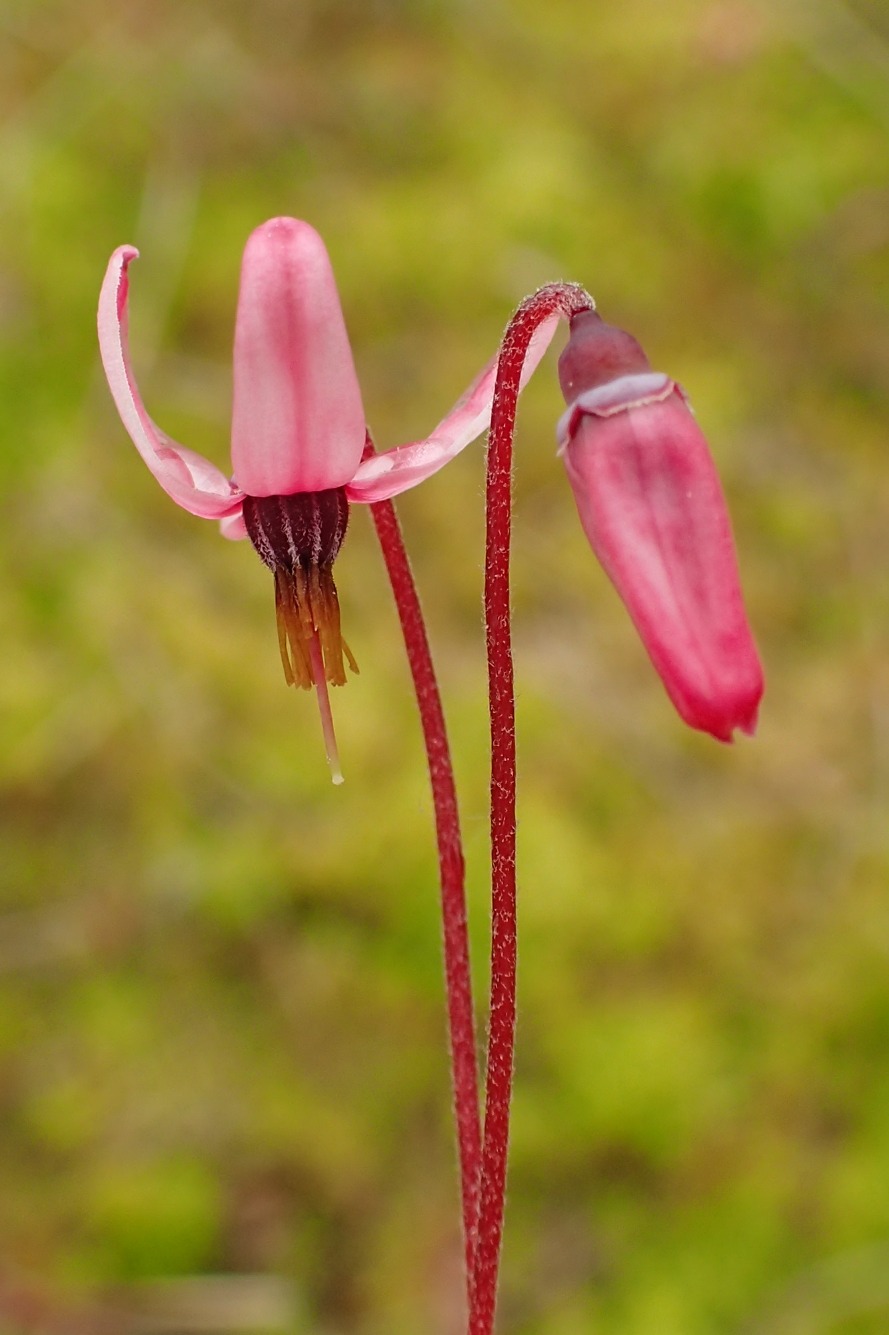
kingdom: Plantae
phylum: Tracheophyta
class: Magnoliopsida
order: Ericales
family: Ericaceae
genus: Vaccinium
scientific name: Vaccinium oxycoccos
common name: Tranebær
